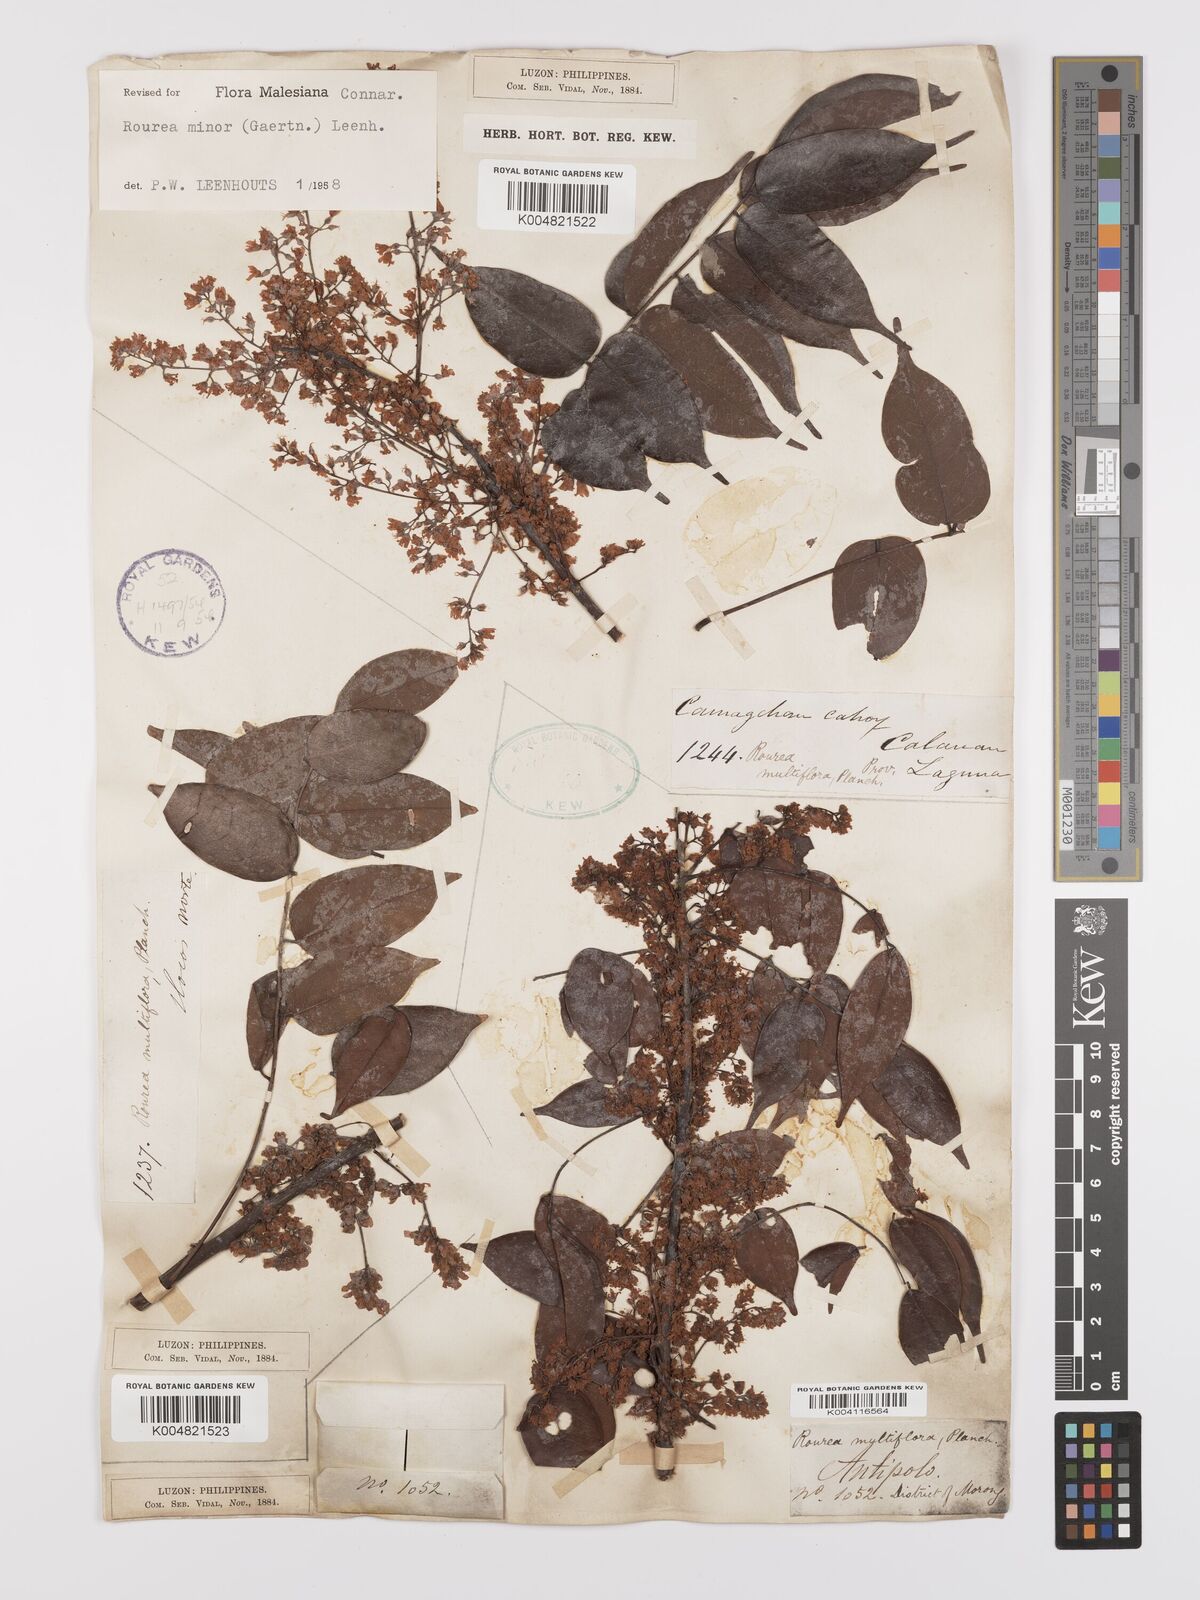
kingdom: Plantae
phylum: Tracheophyta
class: Magnoliopsida
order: Oxalidales
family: Connaraceae
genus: Rourea
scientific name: Rourea minor
